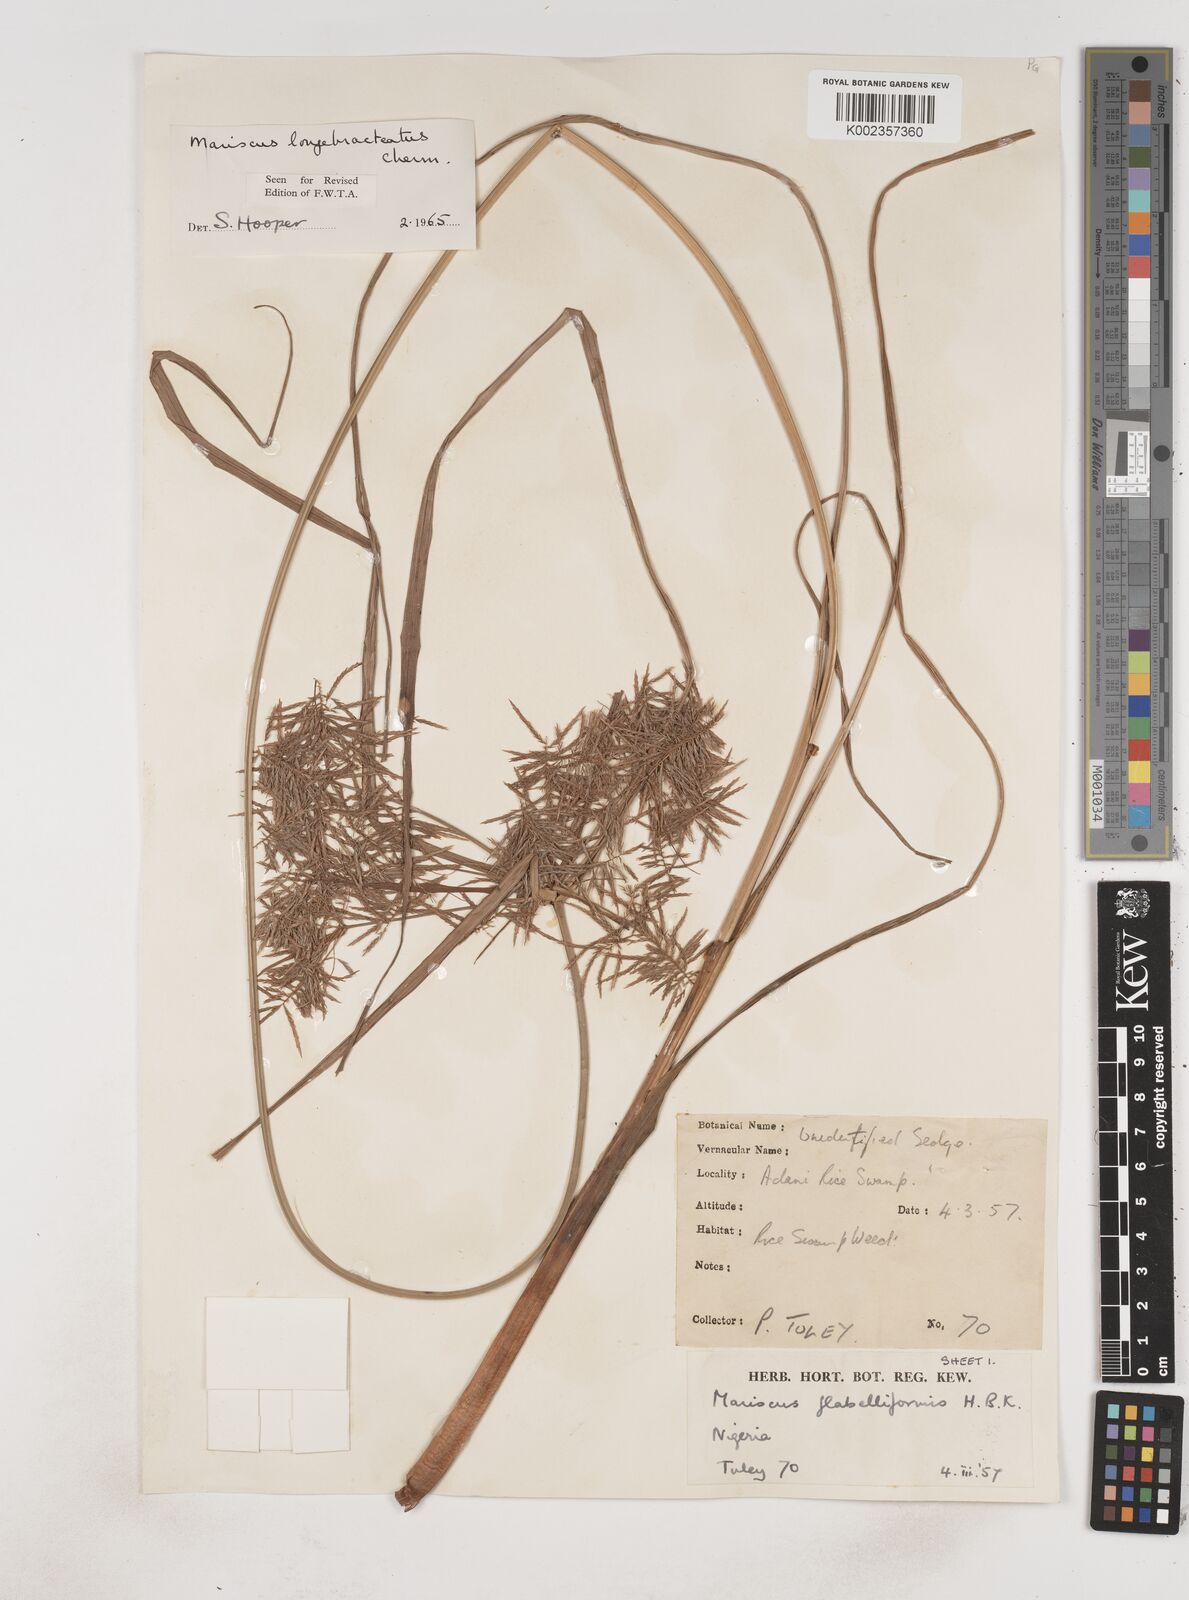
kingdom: Plantae
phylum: Tracheophyta
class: Liliopsida
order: Poales
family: Cyperaceae
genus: Cyperus
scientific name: Cyperus distans
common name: Slender cyperus
